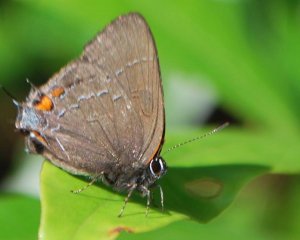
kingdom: Animalia
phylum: Arthropoda
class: Insecta
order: Lepidoptera
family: Lycaenidae
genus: Satyrium
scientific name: Satyrium calanus
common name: Banded Hairstreak
